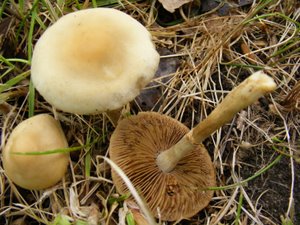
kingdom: Fungi
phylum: Basidiomycota
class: Agaricomycetes
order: Agaricales
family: Strophariaceae
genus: Agrocybe
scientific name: Agrocybe praecox
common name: tidlig agerhat
